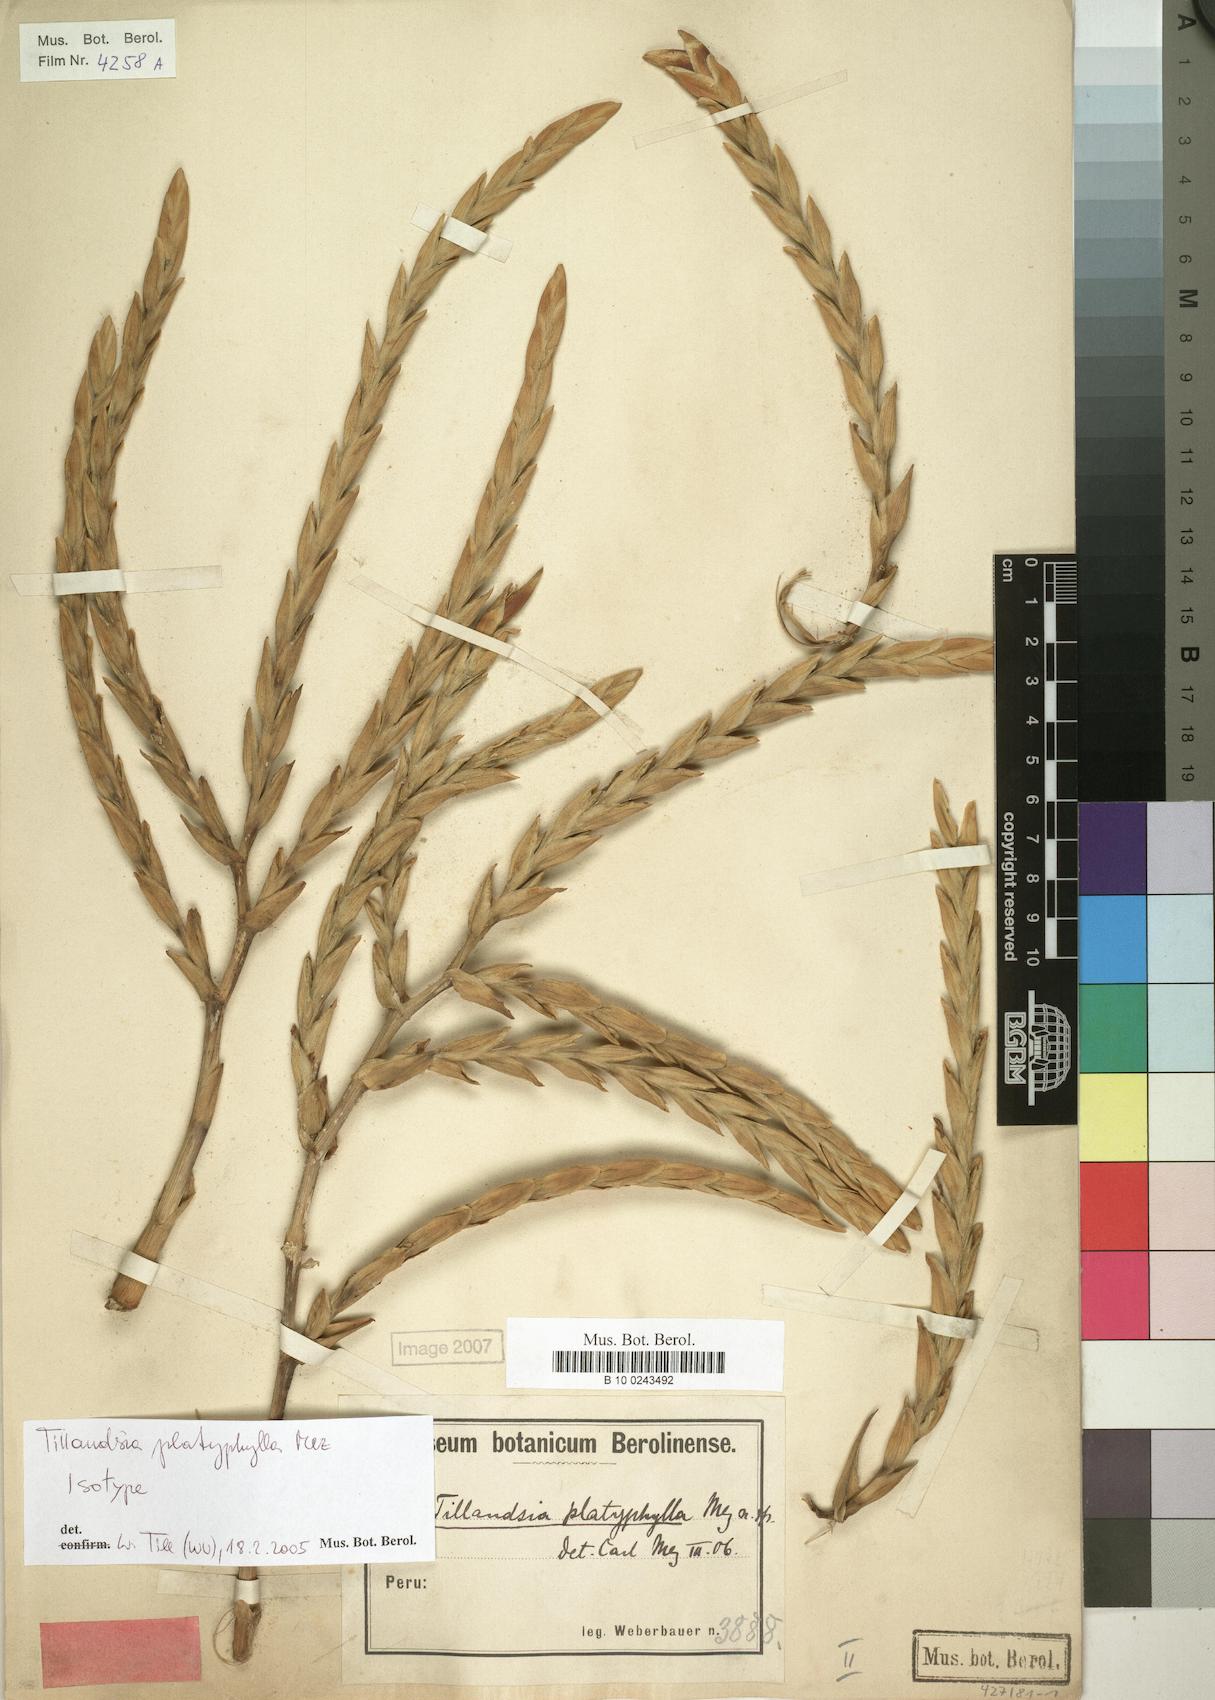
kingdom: Plantae
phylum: Tracheophyta
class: Liliopsida
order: Poales
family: Bromeliaceae
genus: Tillandsia
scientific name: Tillandsia platyphylla
